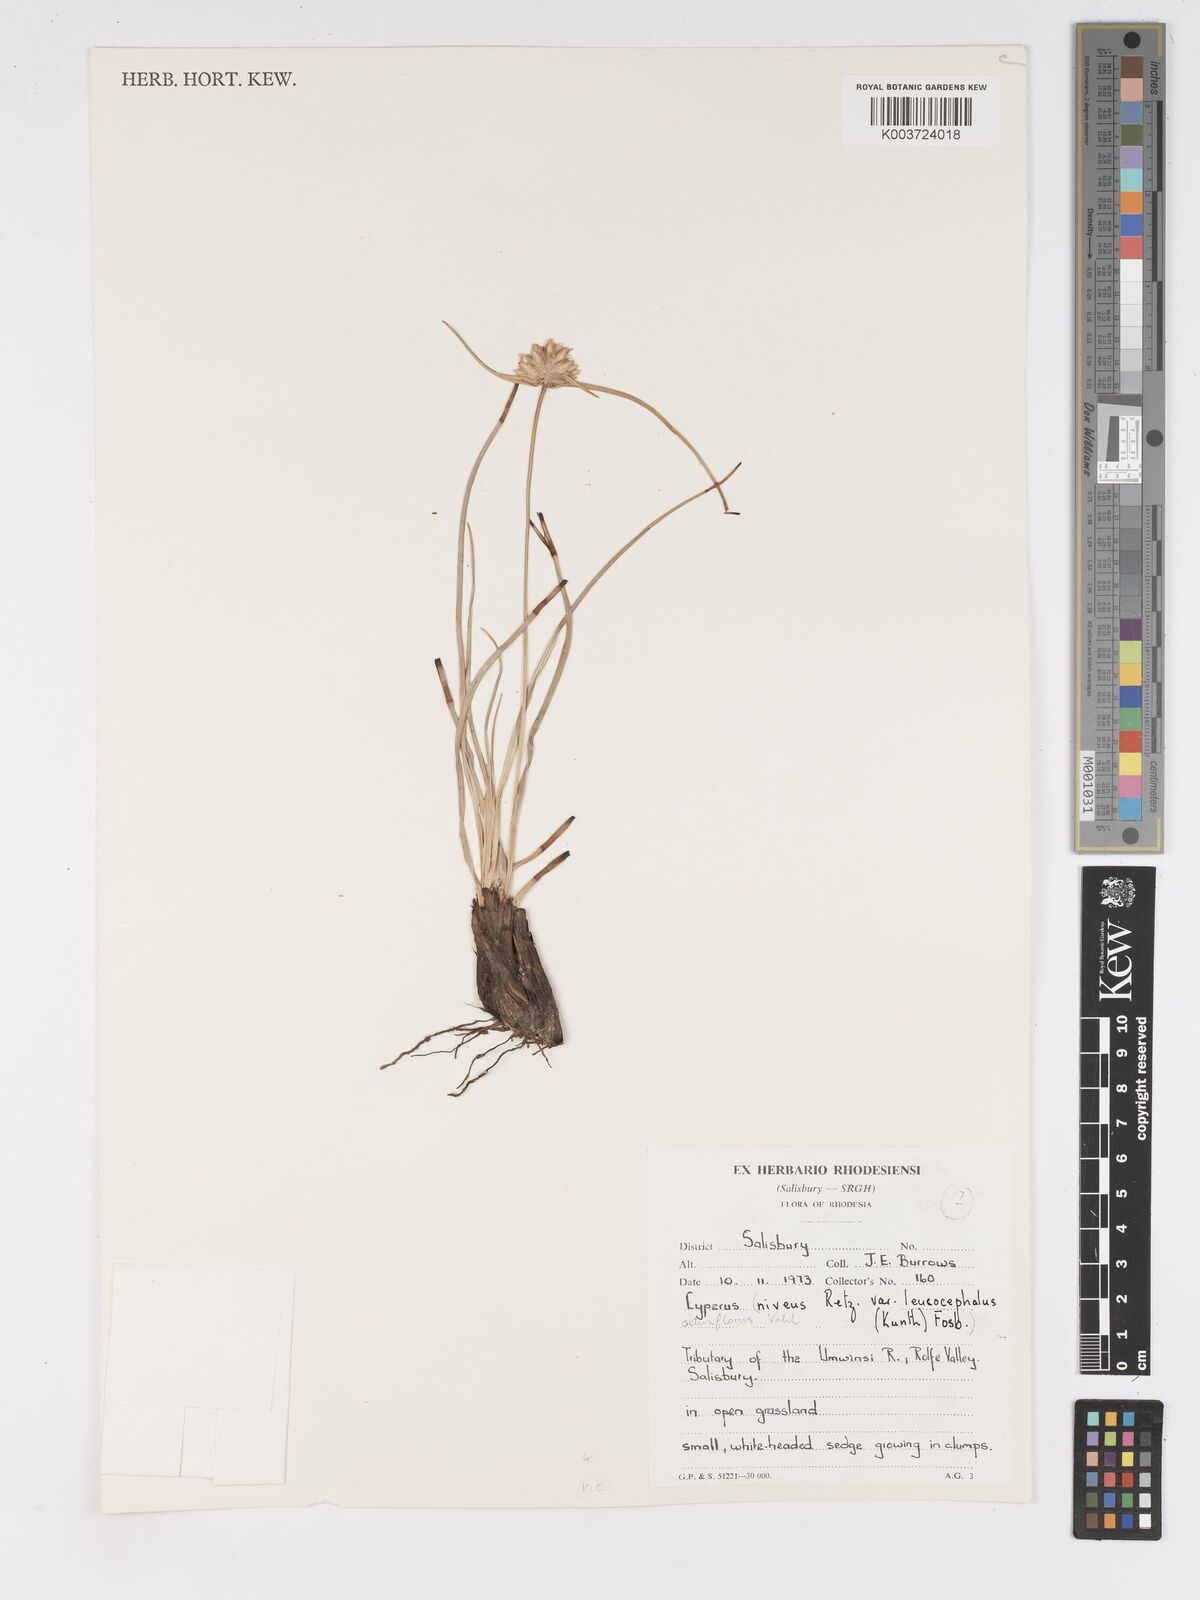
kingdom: Plantae
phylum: Tracheophyta
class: Liliopsida
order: Poales
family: Cyperaceae
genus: Cyperus
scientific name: Cyperus niveus
